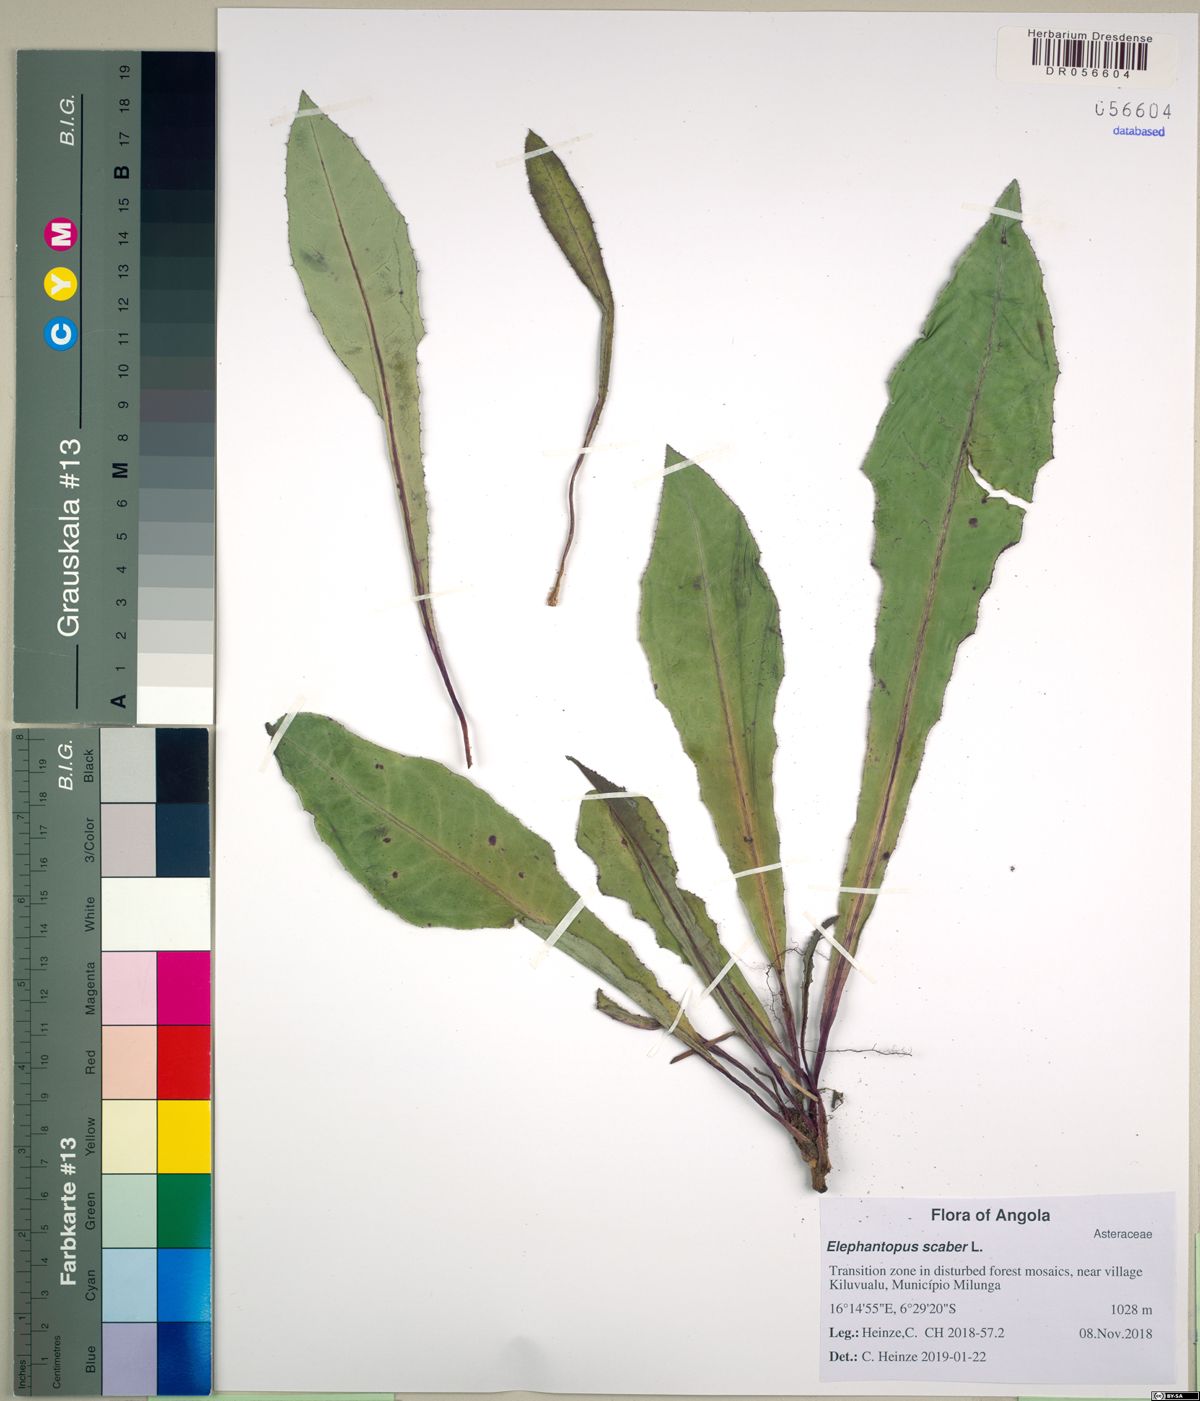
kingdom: Plantae
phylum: Tracheophyta
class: Magnoliopsida
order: Asterales
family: Asteraceae
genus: Elephantopus
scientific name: Elephantopus scaber
